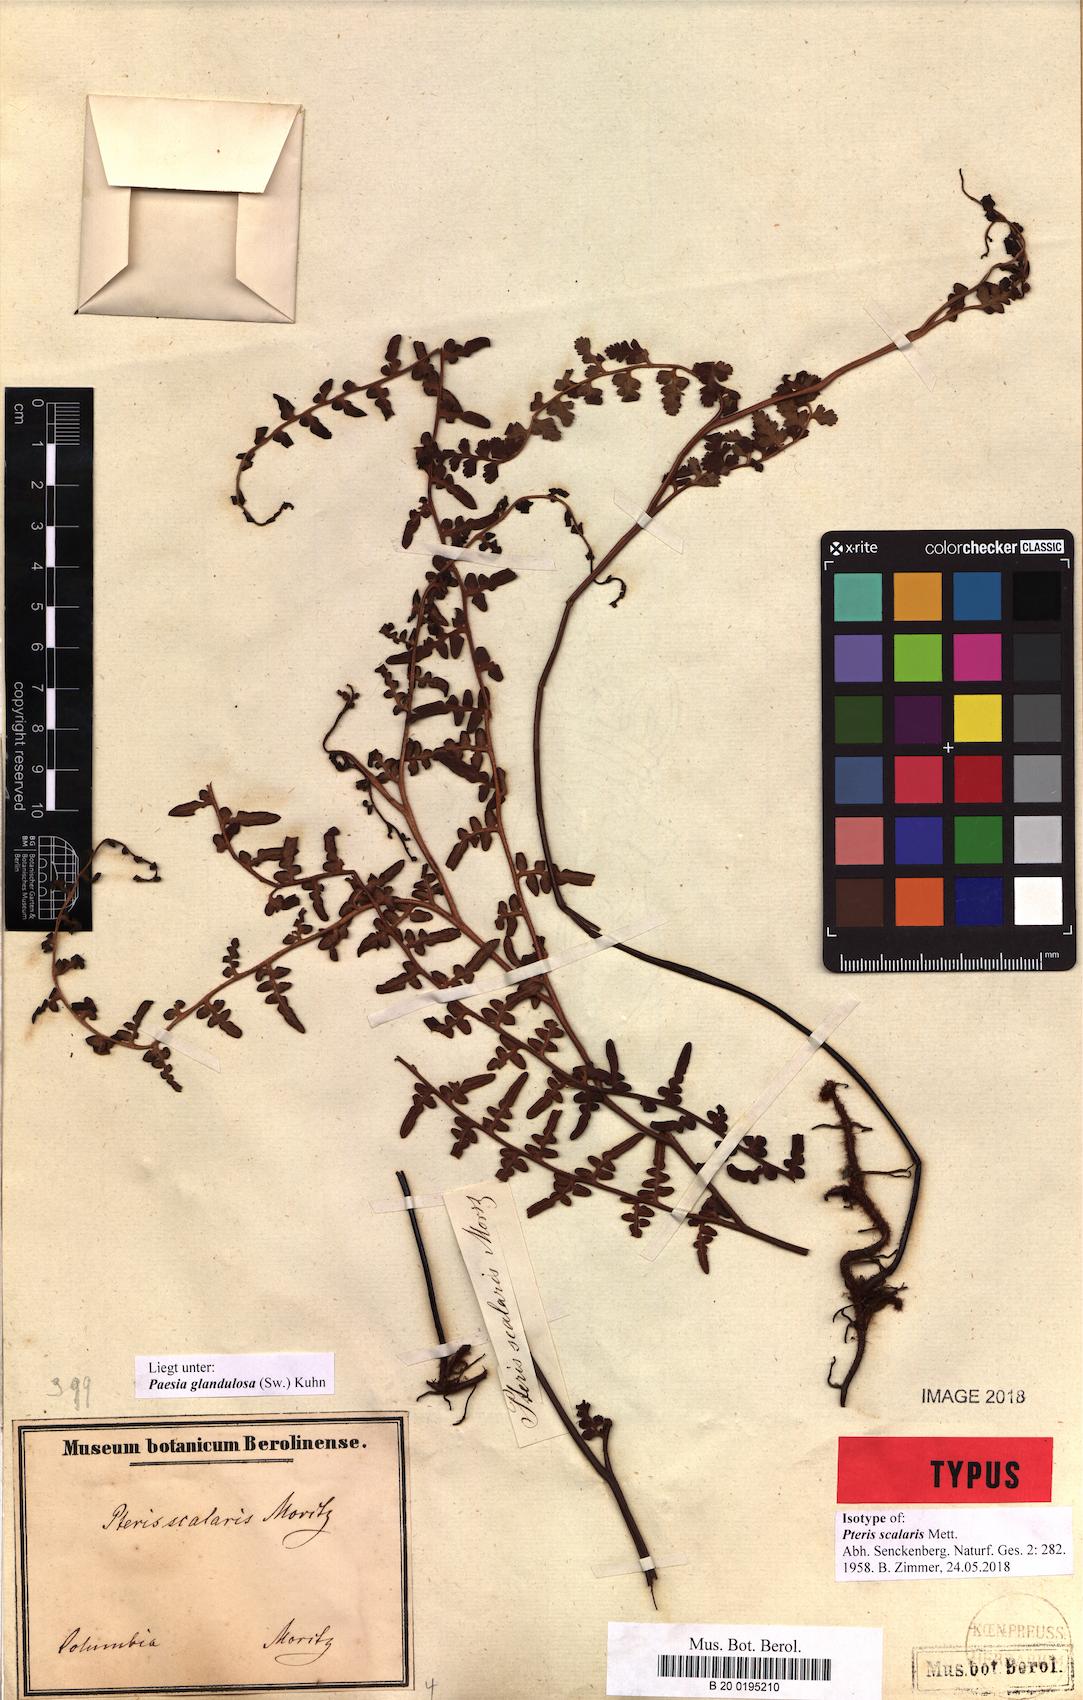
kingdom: Plantae
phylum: Tracheophyta
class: Polypodiopsida
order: Polypodiales
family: Dennstaedtiaceae
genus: Paesia
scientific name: Paesia glandulosa
